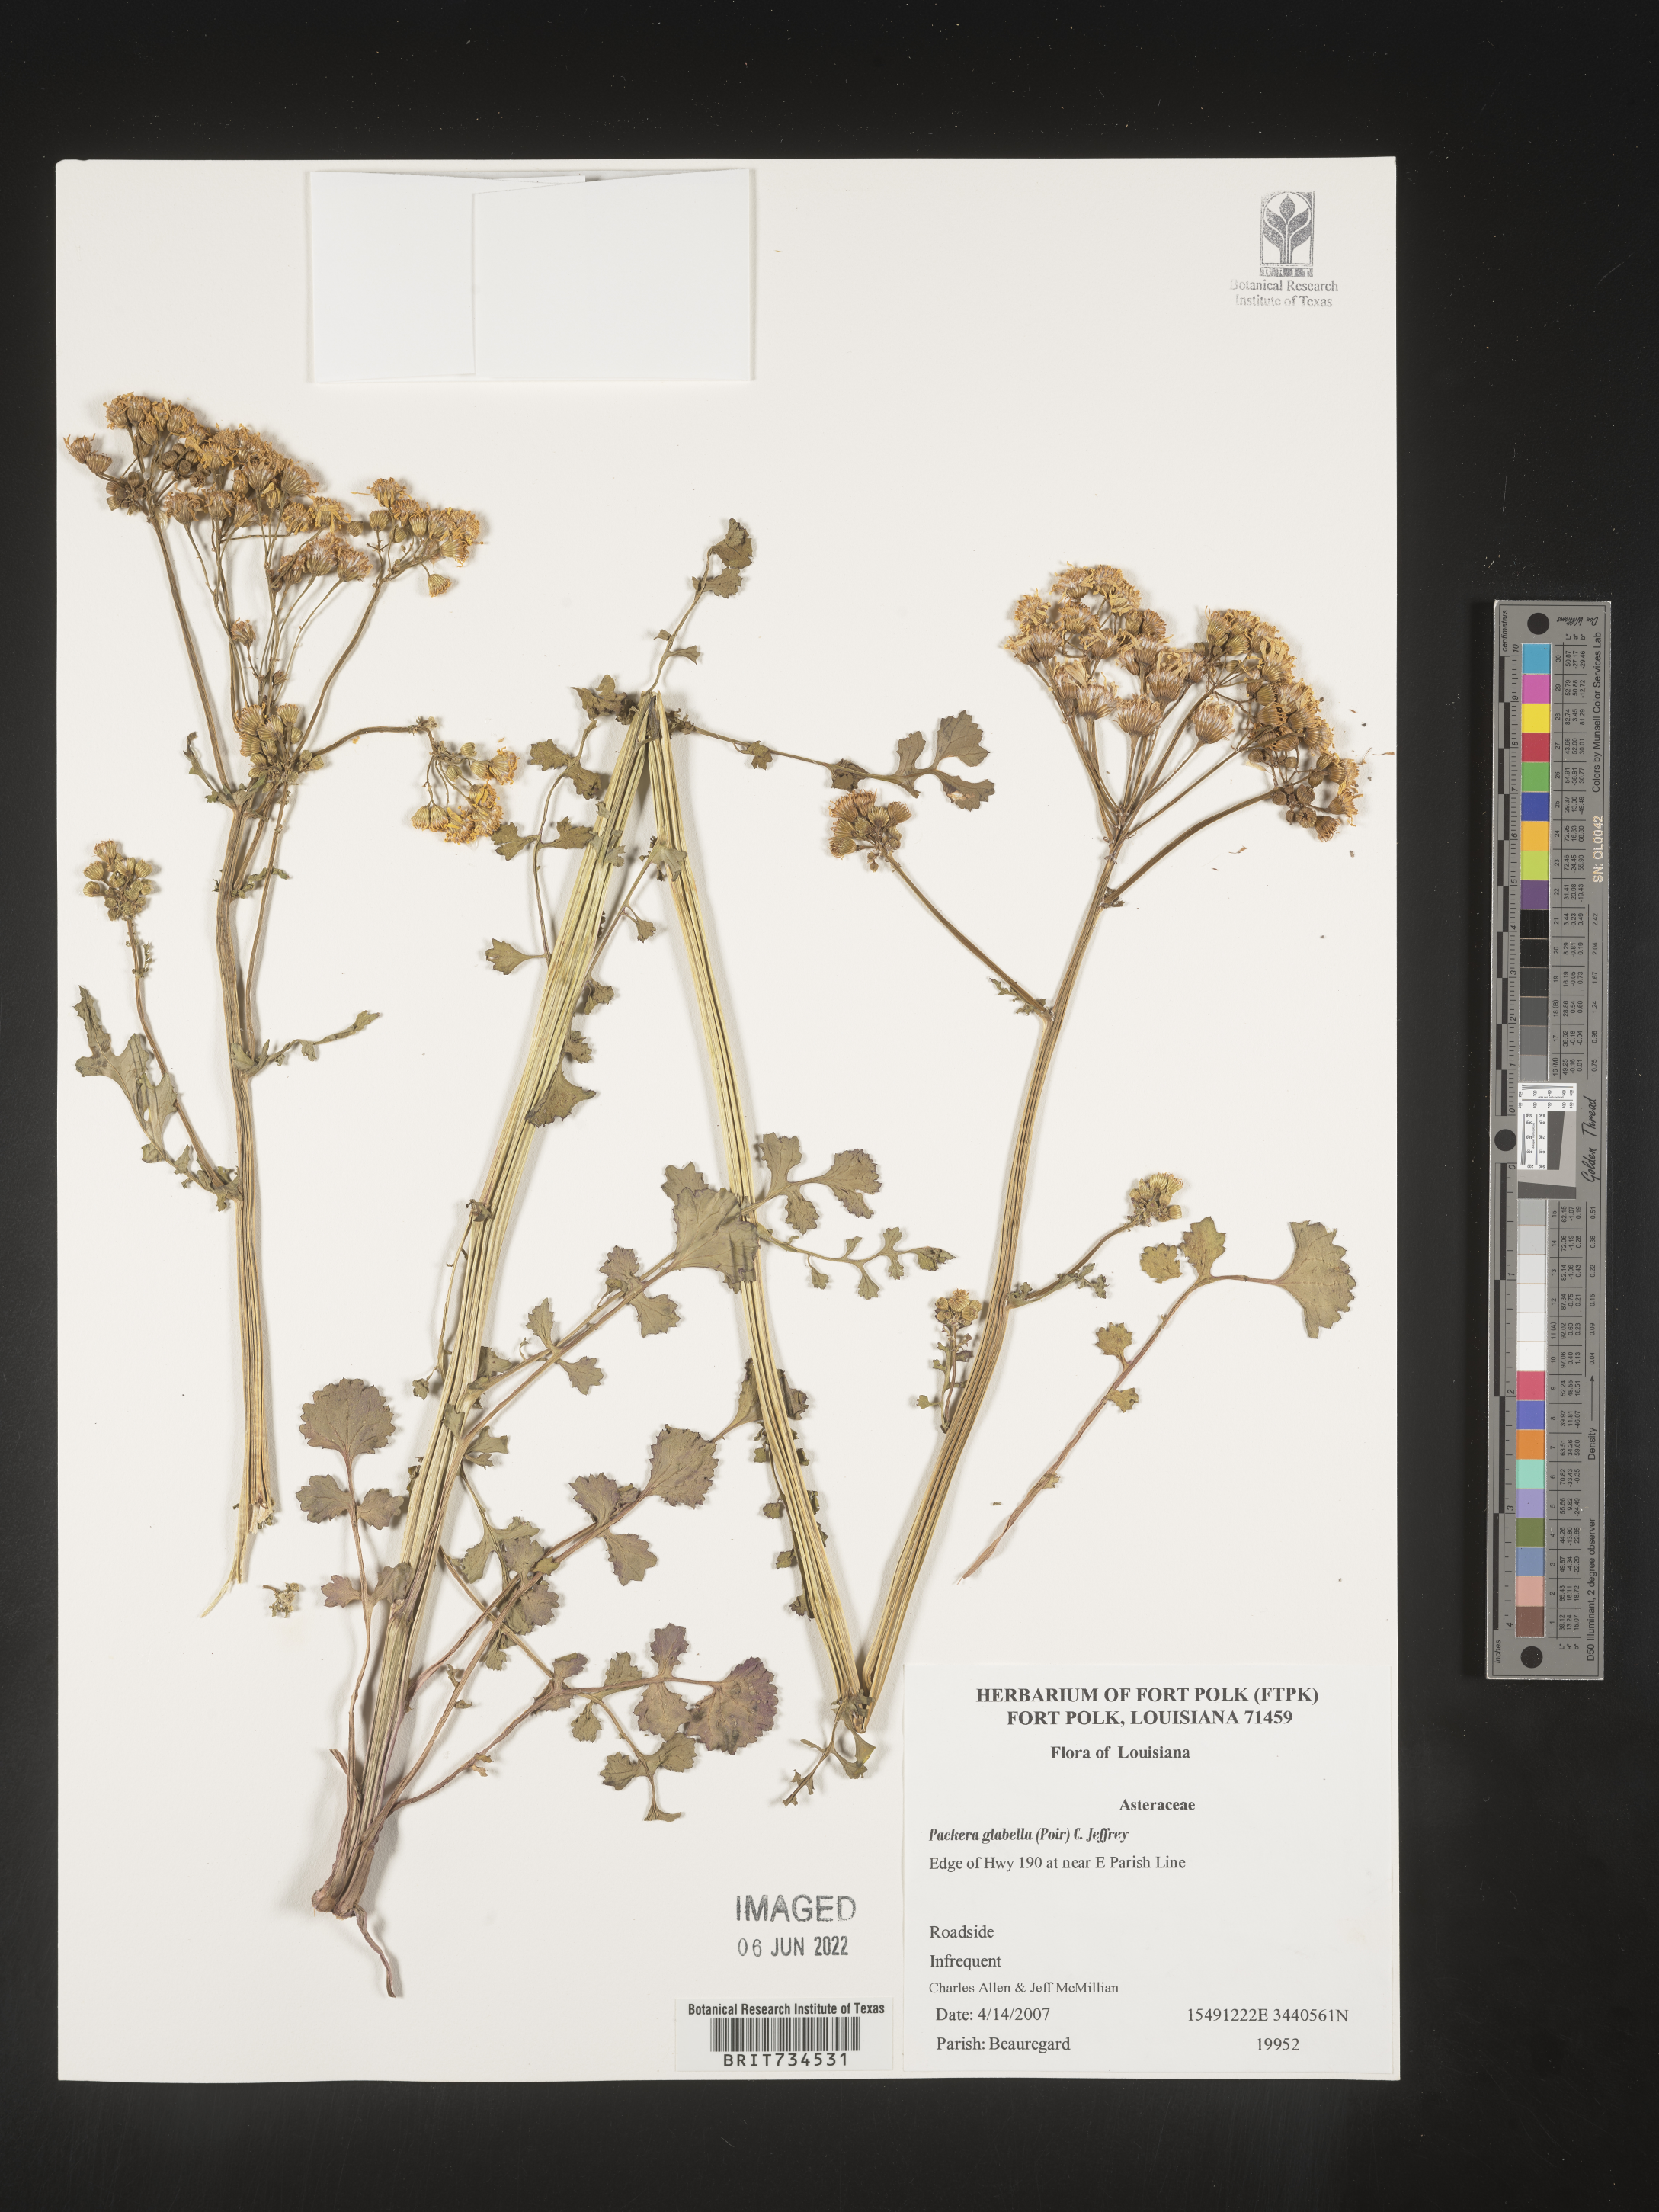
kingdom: Plantae
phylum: Tracheophyta
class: Magnoliopsida
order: Asterales
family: Asteraceae
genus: Packera
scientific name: Packera glabella
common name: Butterweed
